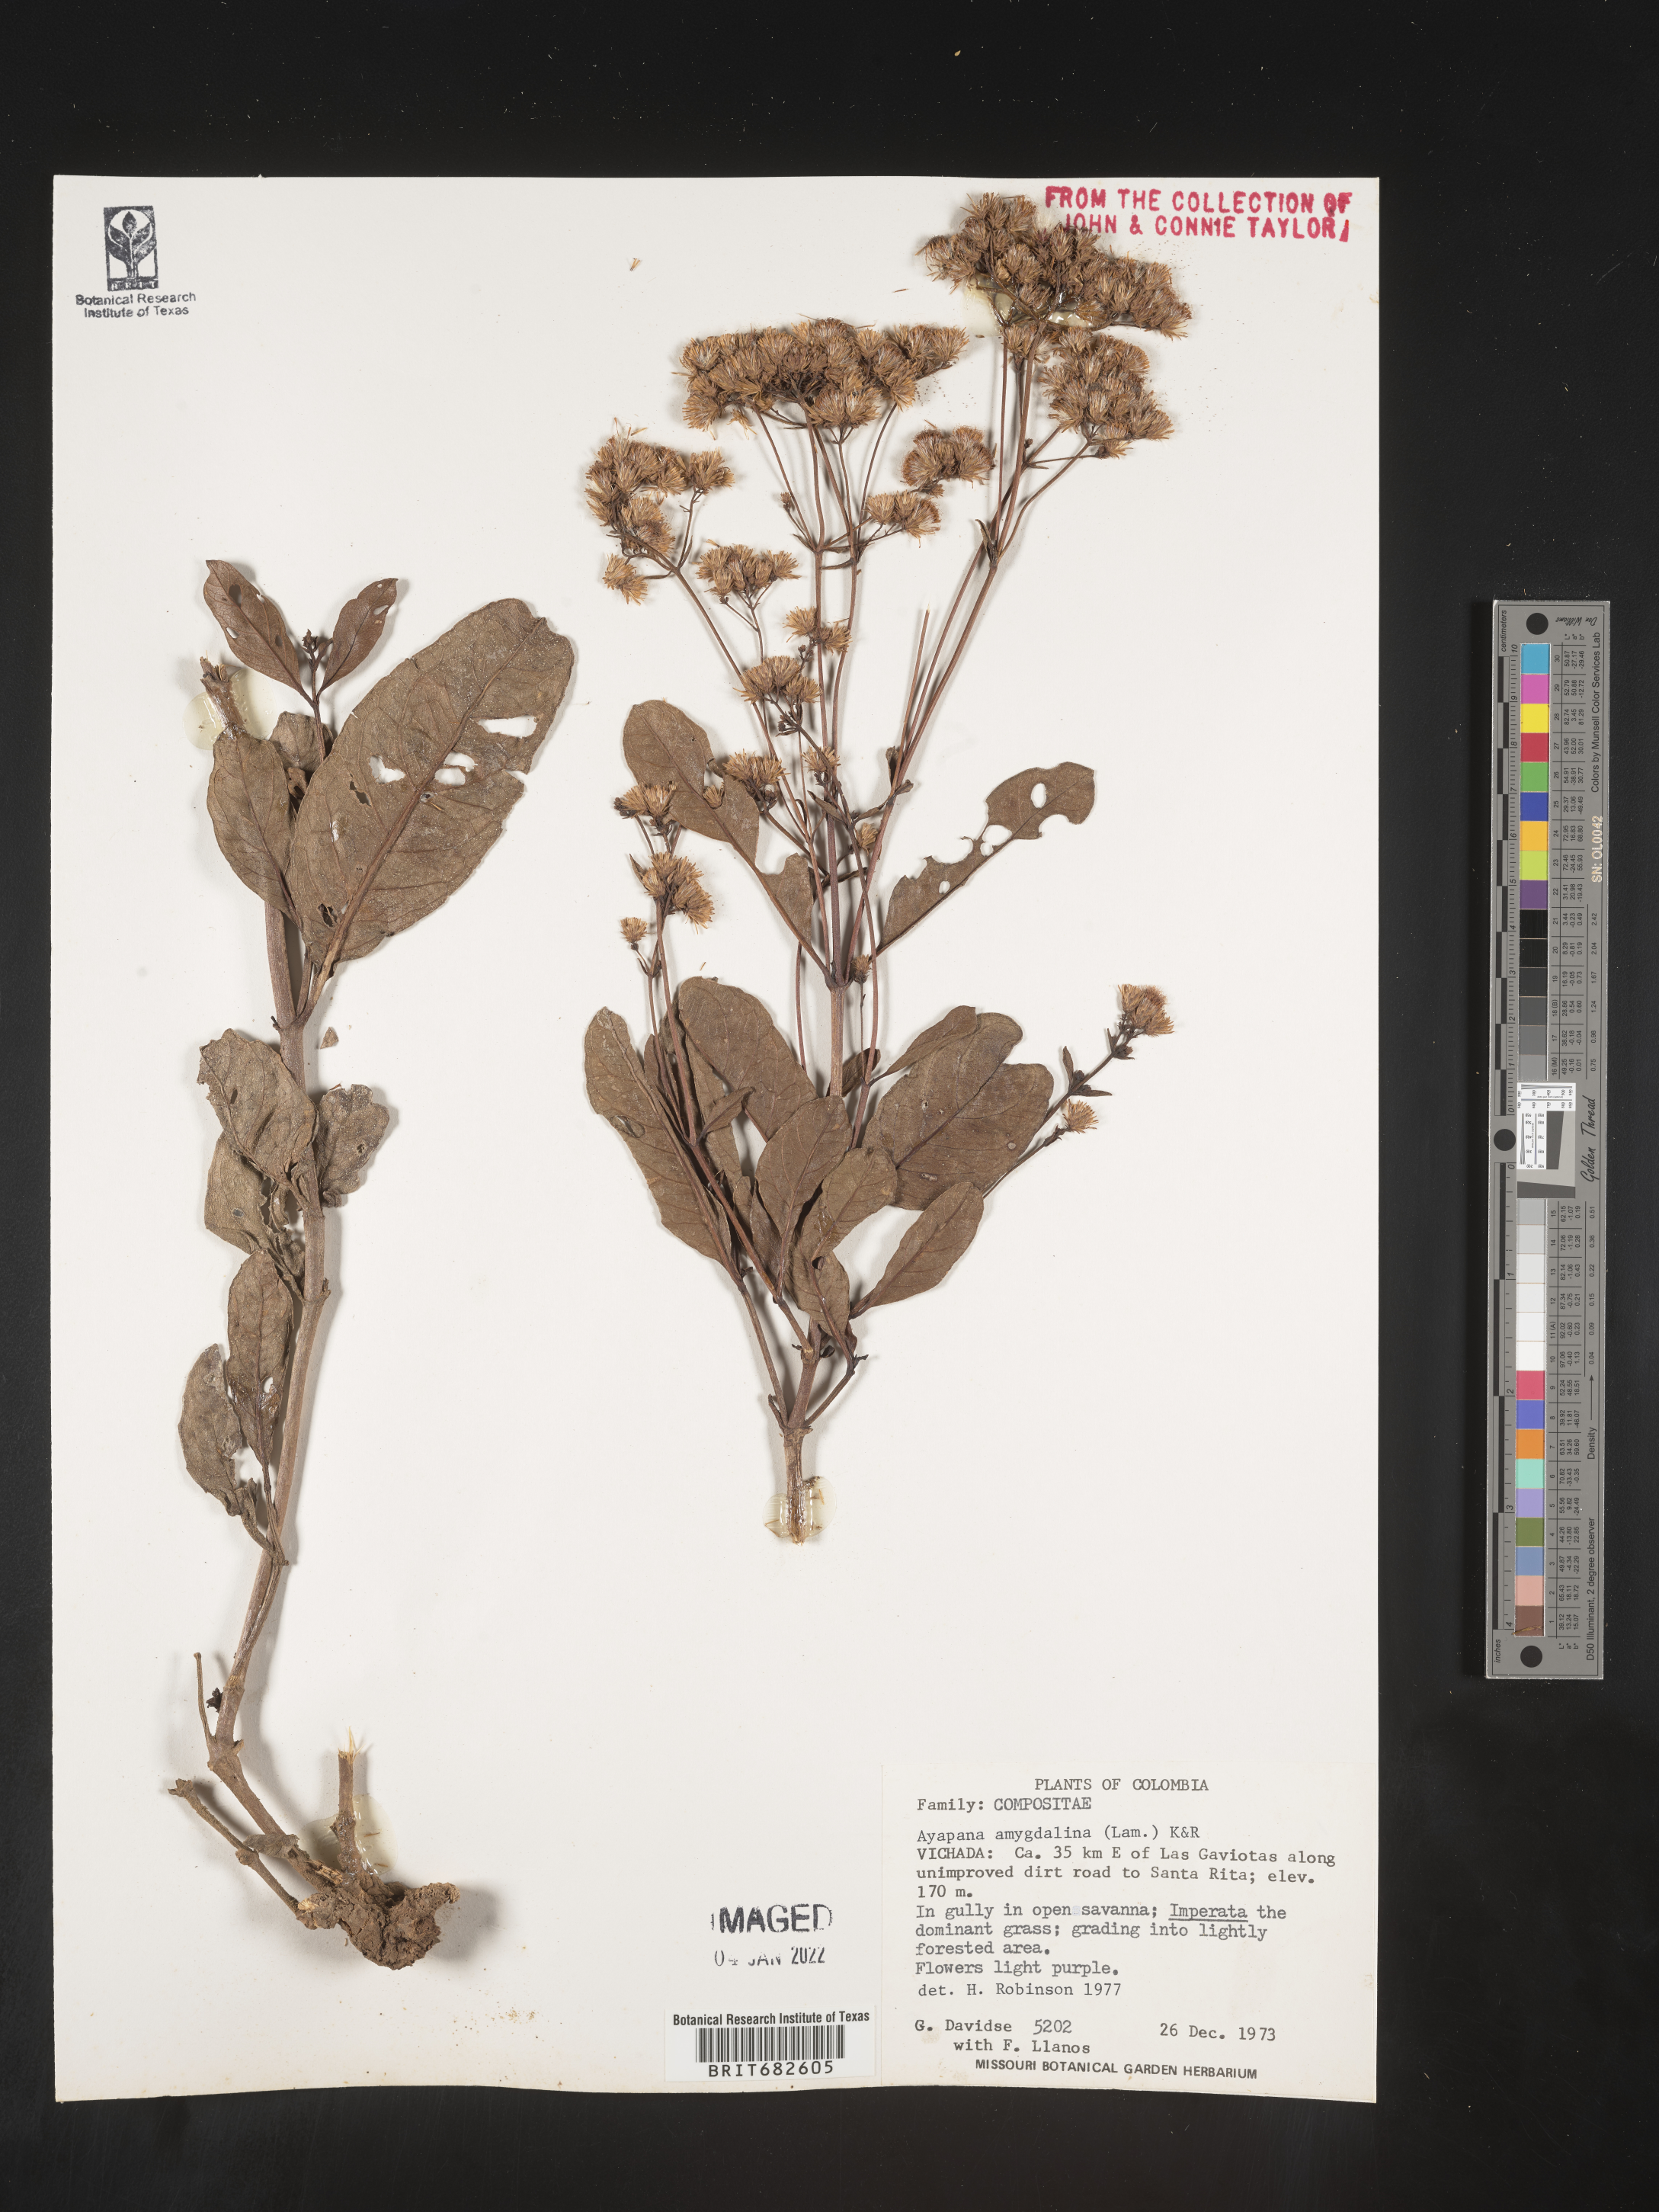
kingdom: Plantae
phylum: Tracheophyta
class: Magnoliopsida
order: Asterales
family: Asteraceae
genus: Ayapana
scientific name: Ayapana
